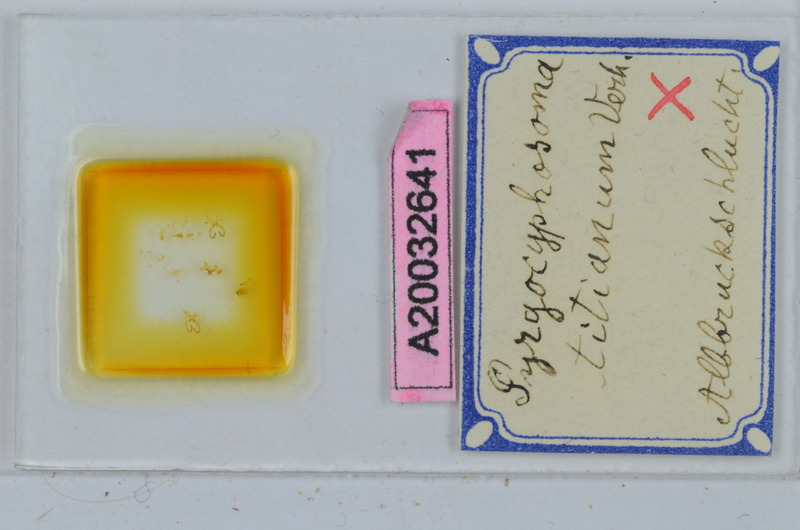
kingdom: Animalia
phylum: Arthropoda
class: Diplopoda
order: Chordeumatida
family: Craspedosomatidae
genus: Pyrgocyphosoma
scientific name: Pyrgocyphosoma titianum
